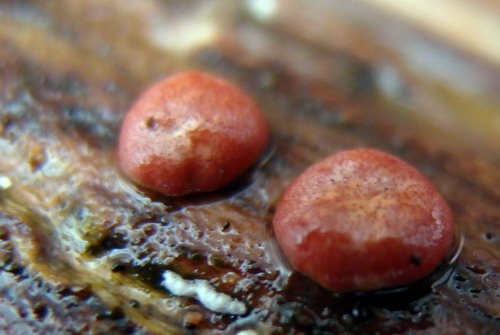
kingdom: Fungi
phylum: Ascomycota
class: Sordariomycetes
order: Hypocreales
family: Hypocreaceae
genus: Trichoderma
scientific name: Trichoderma europaeum
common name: rosabrun kødkerne
